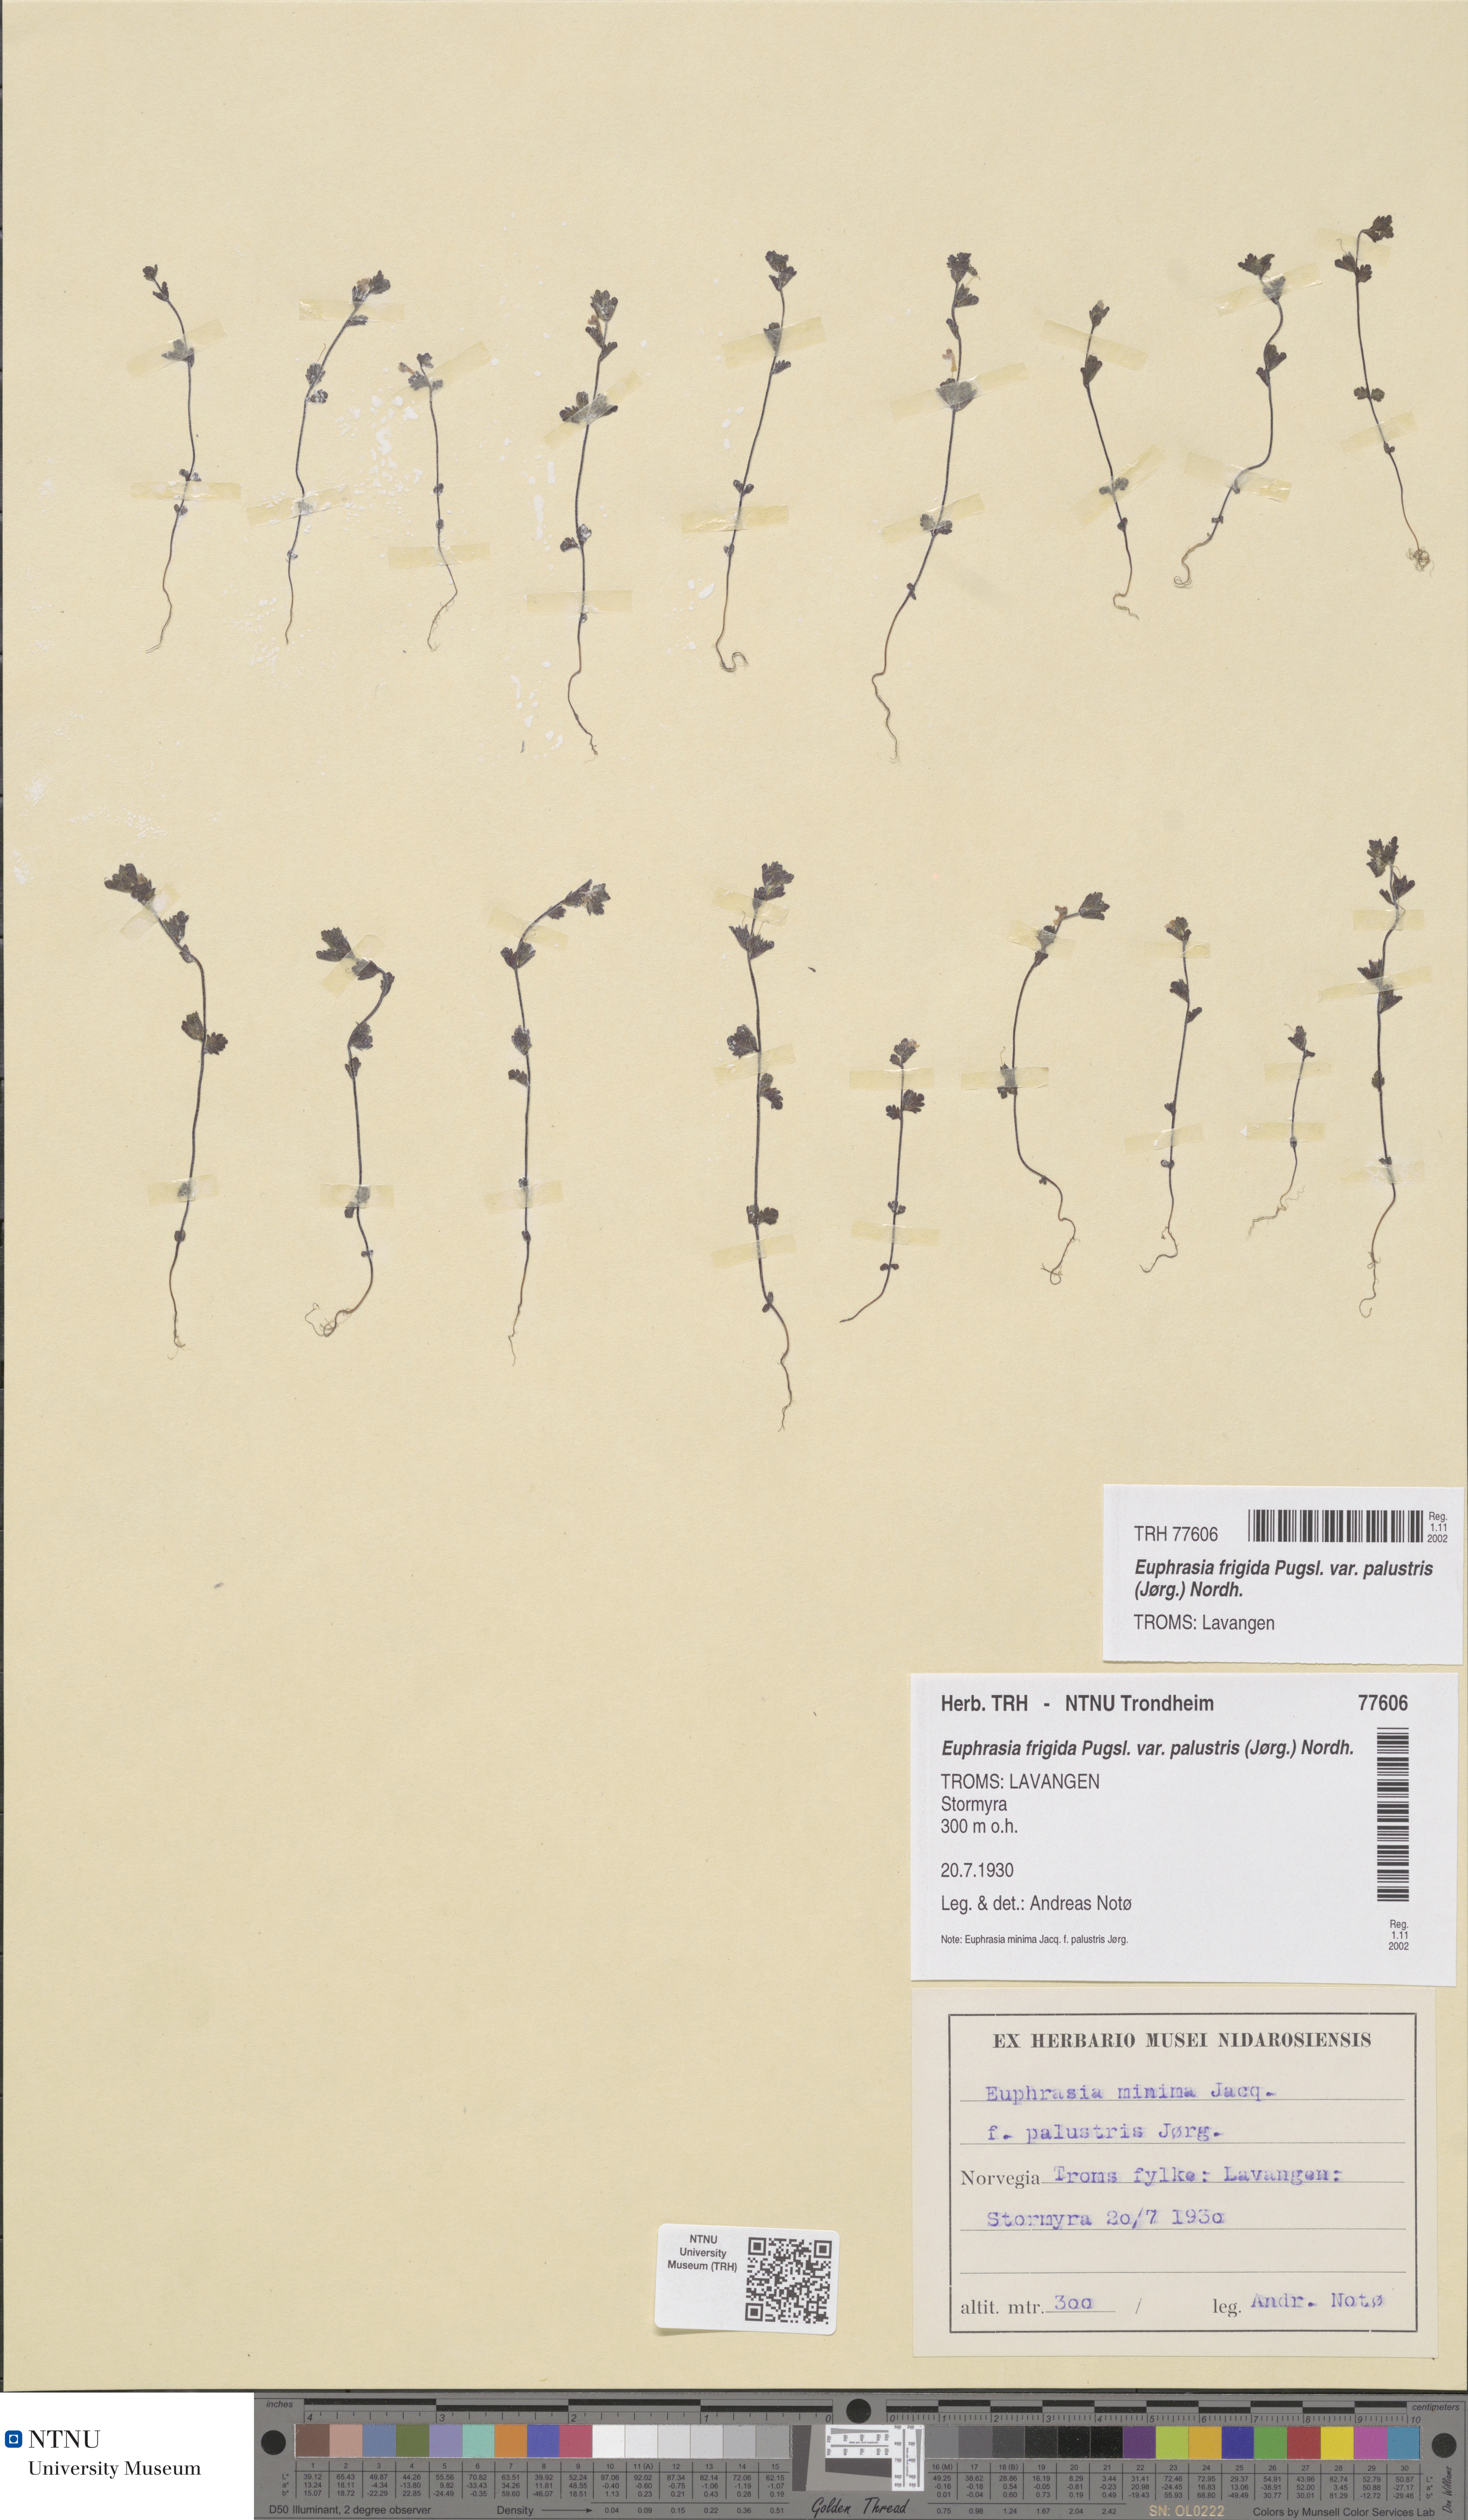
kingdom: Plantae
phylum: Tracheophyta
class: Magnoliopsida
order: Lamiales
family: Orobanchaceae
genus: Euphrasia
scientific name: Euphrasia wettsteinii
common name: Wettstein's eyebright
